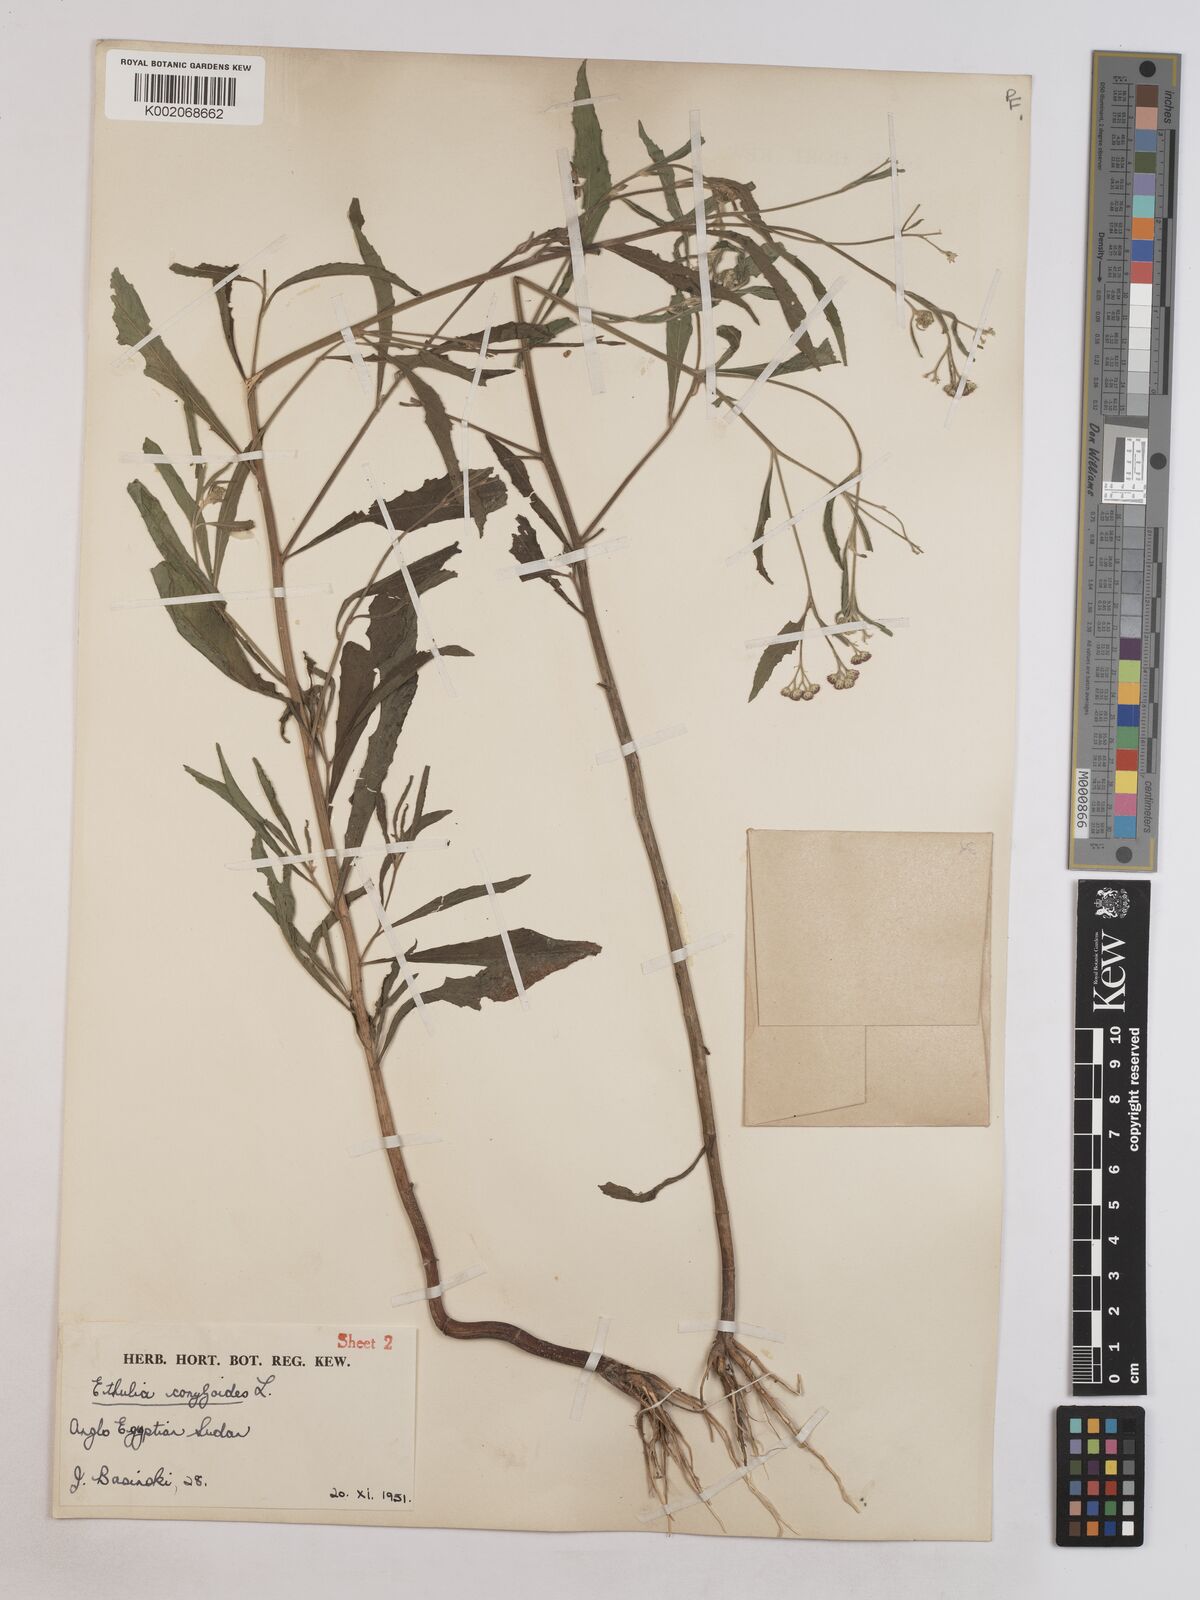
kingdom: Plantae
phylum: Tracheophyta
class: Magnoliopsida
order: Asterales
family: Asteraceae
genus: Ethulia
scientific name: Ethulia gracilis
